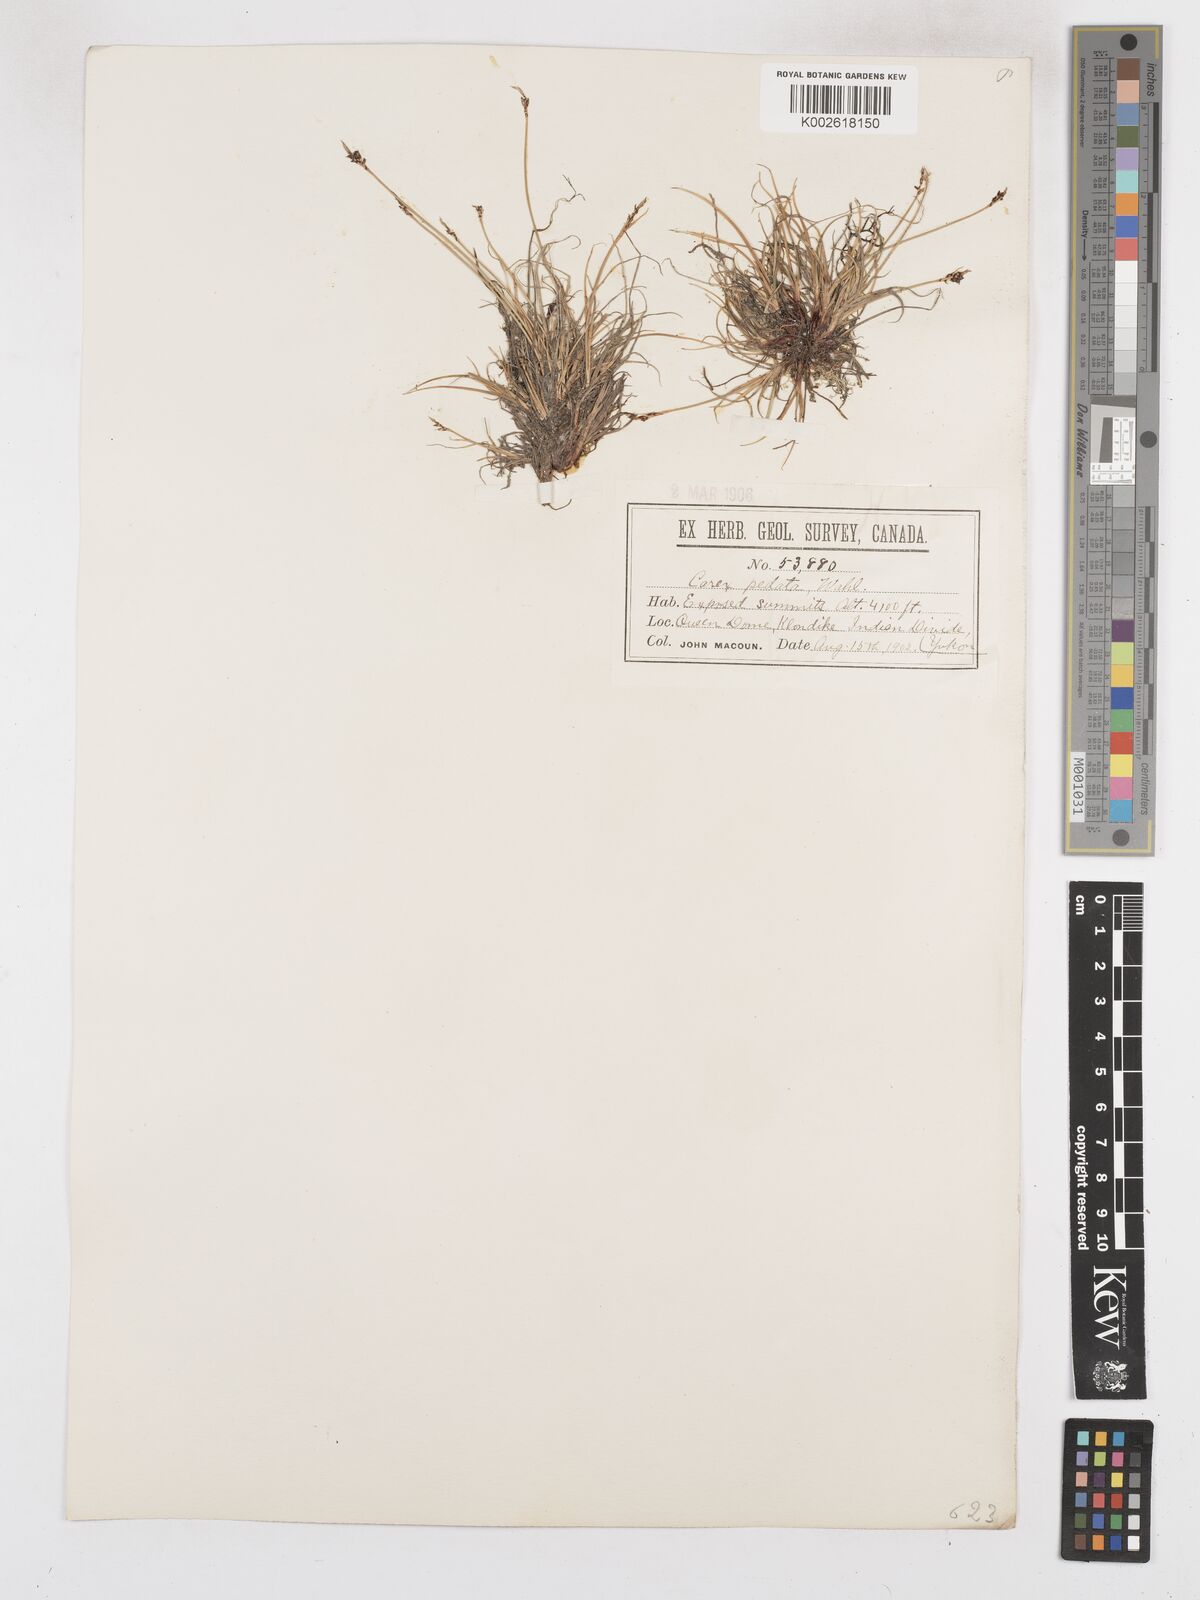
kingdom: Plantae
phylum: Tracheophyta
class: Liliopsida
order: Poales
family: Cyperaceae
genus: Carex
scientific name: Carex glacialis
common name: Newfoundland sedge
